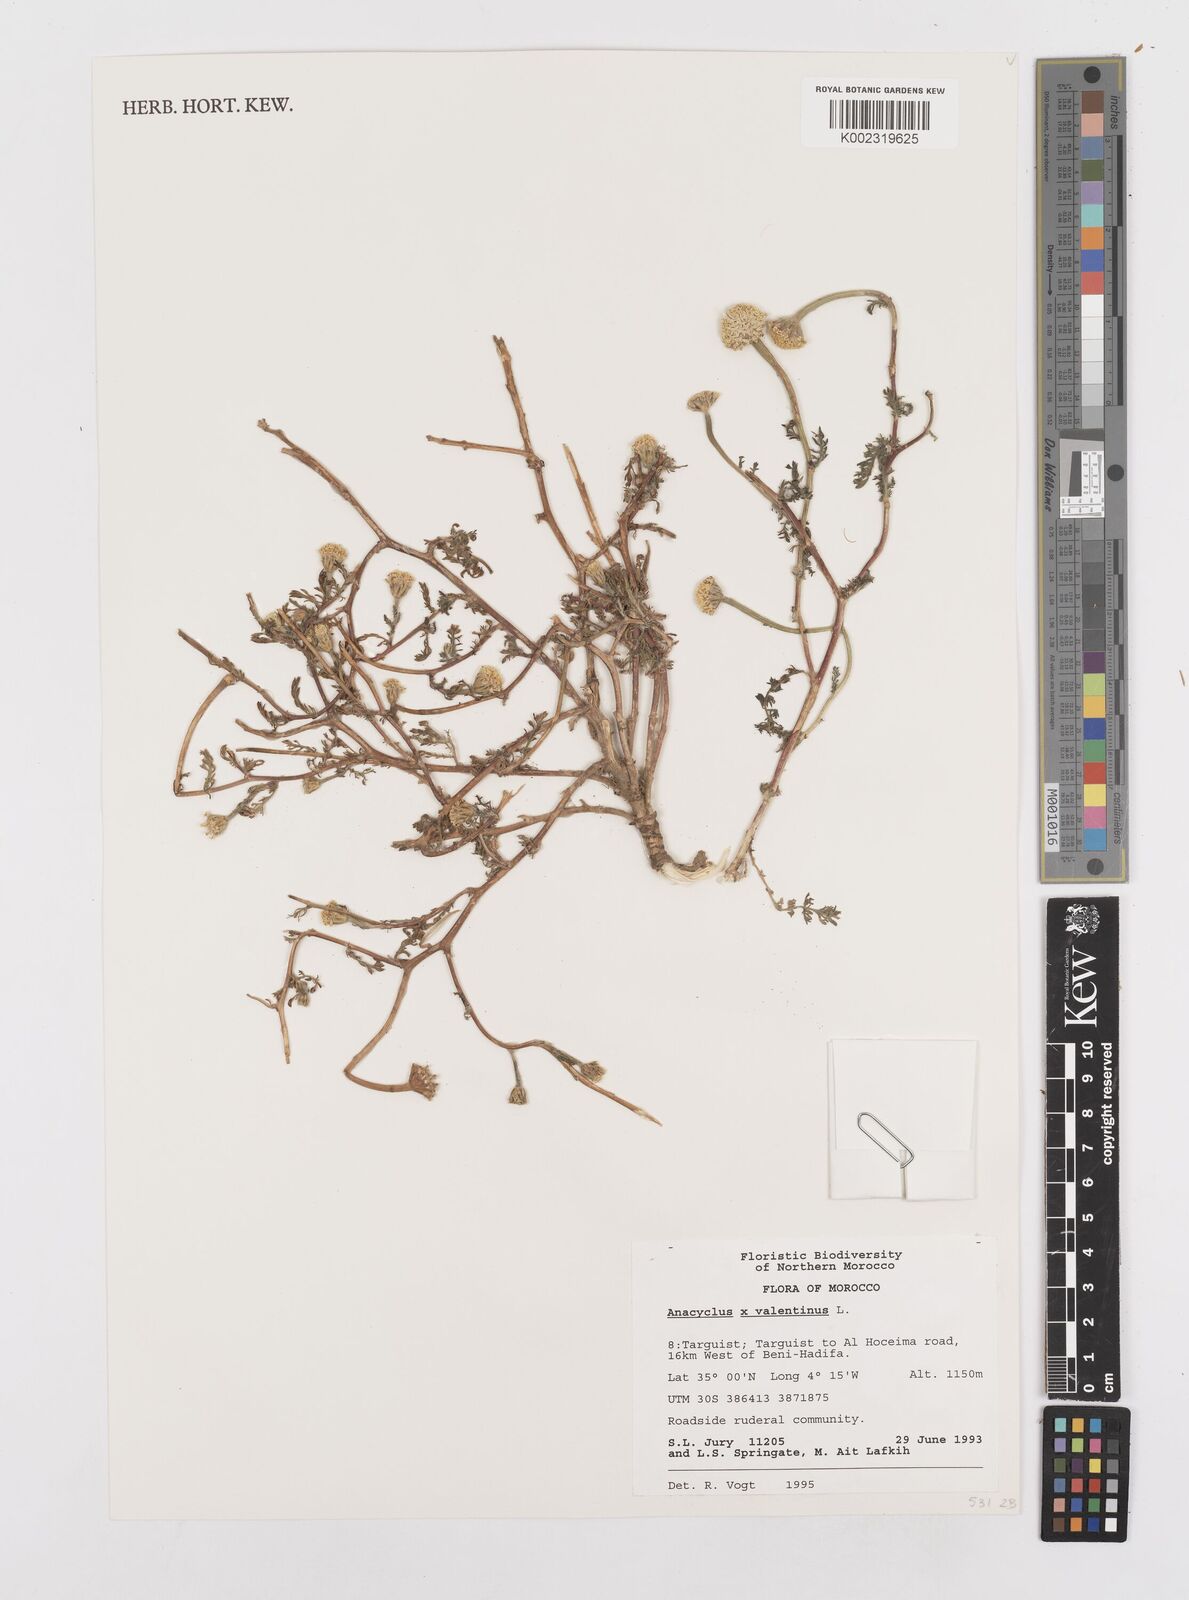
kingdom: Plantae
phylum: Tracheophyta
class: Magnoliopsida
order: Asterales
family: Asteraceae
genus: Anacyclus
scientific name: Anacyclus valentinus
